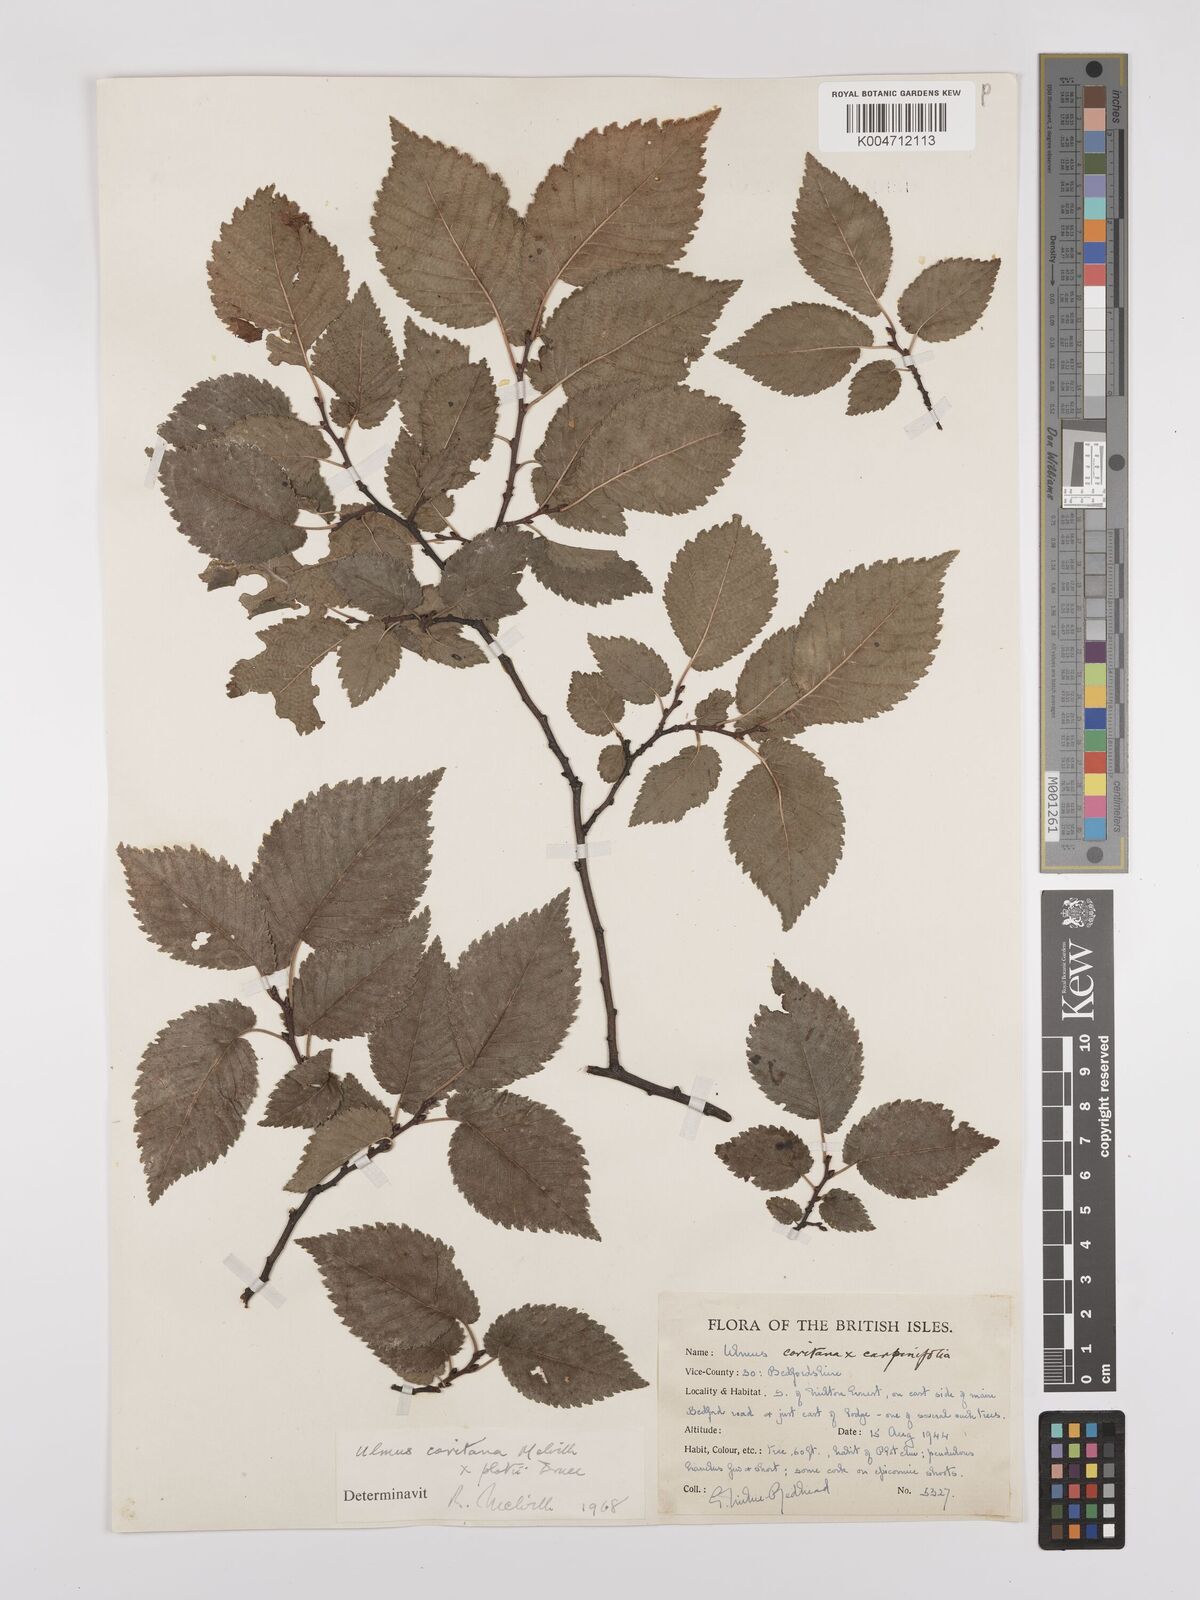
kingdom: Plantae
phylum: Tracheophyta
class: Magnoliopsida
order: Rosales
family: Ulmaceae
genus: Ulmus
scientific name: Ulmus minor
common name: Small-leaved elm
